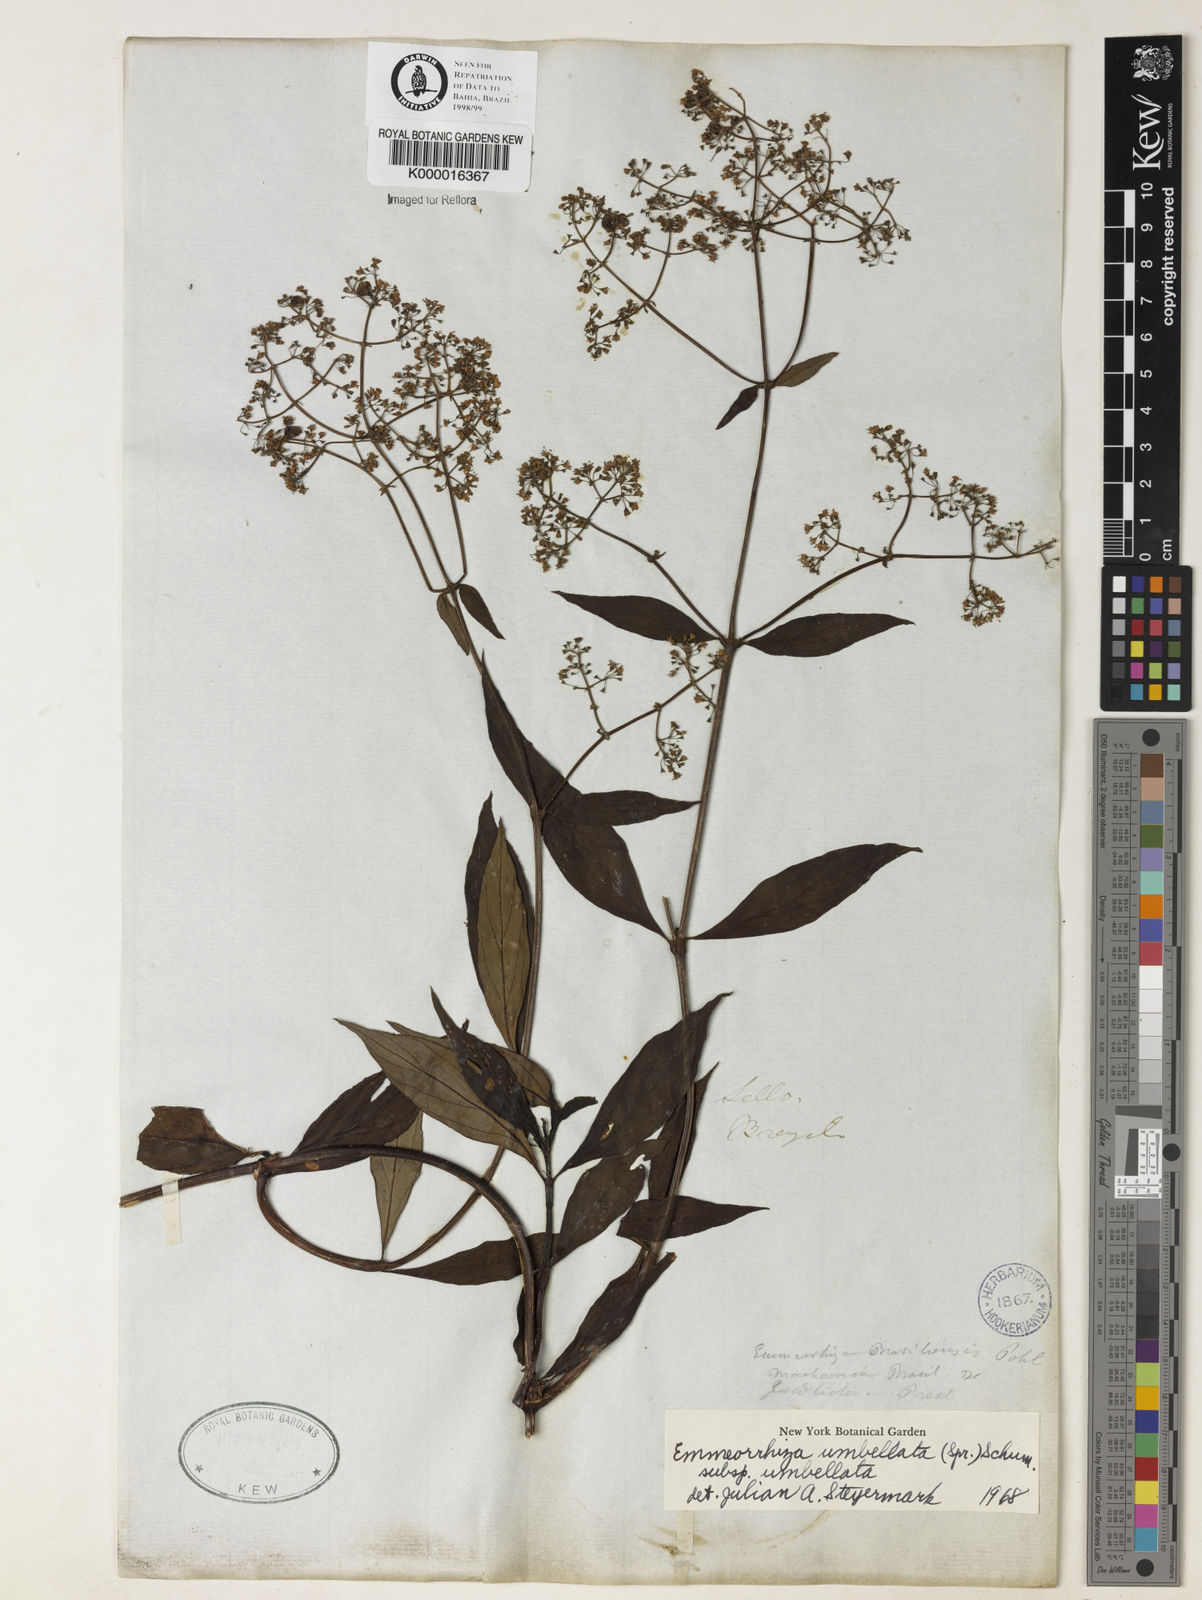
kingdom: Plantae
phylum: Tracheophyta
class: Magnoliopsida
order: Gentianales
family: Rubiaceae
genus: Emmeorhiza
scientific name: Emmeorhiza umbellata
